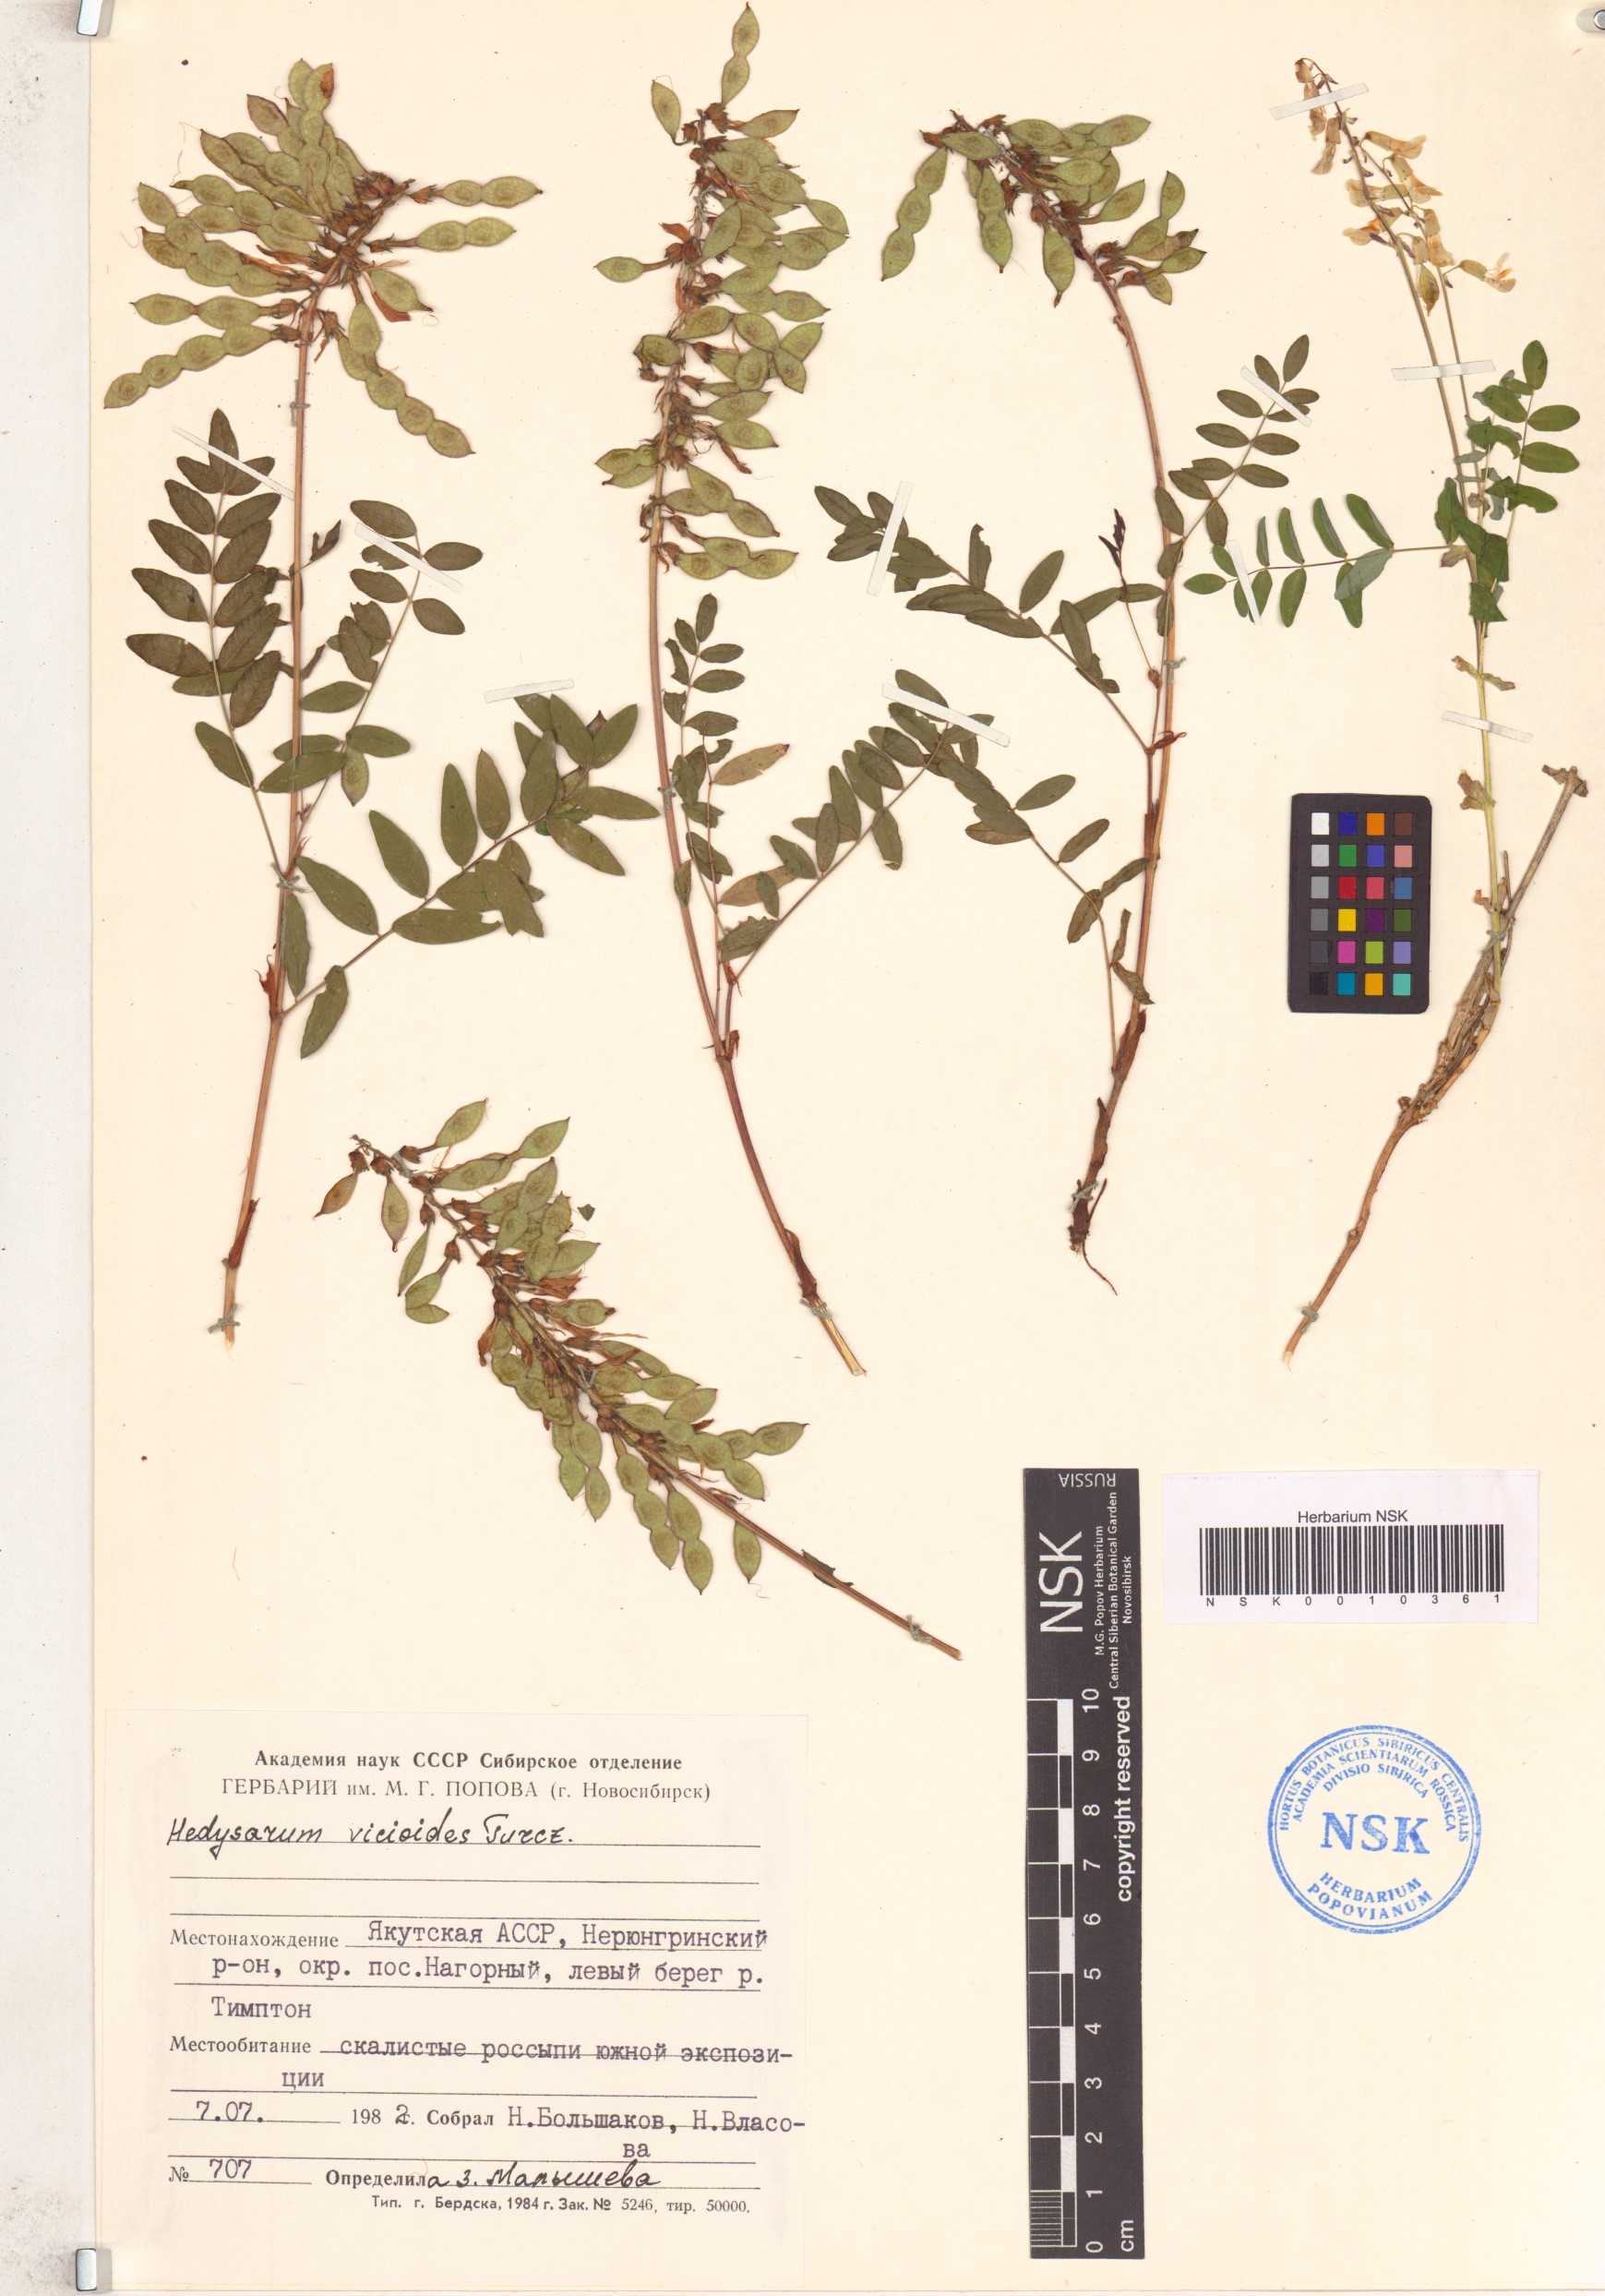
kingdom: Plantae
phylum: Tracheophyta
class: Magnoliopsida
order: Fabales
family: Fabaceae
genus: Hedysarum
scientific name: Hedysarum vicioides
